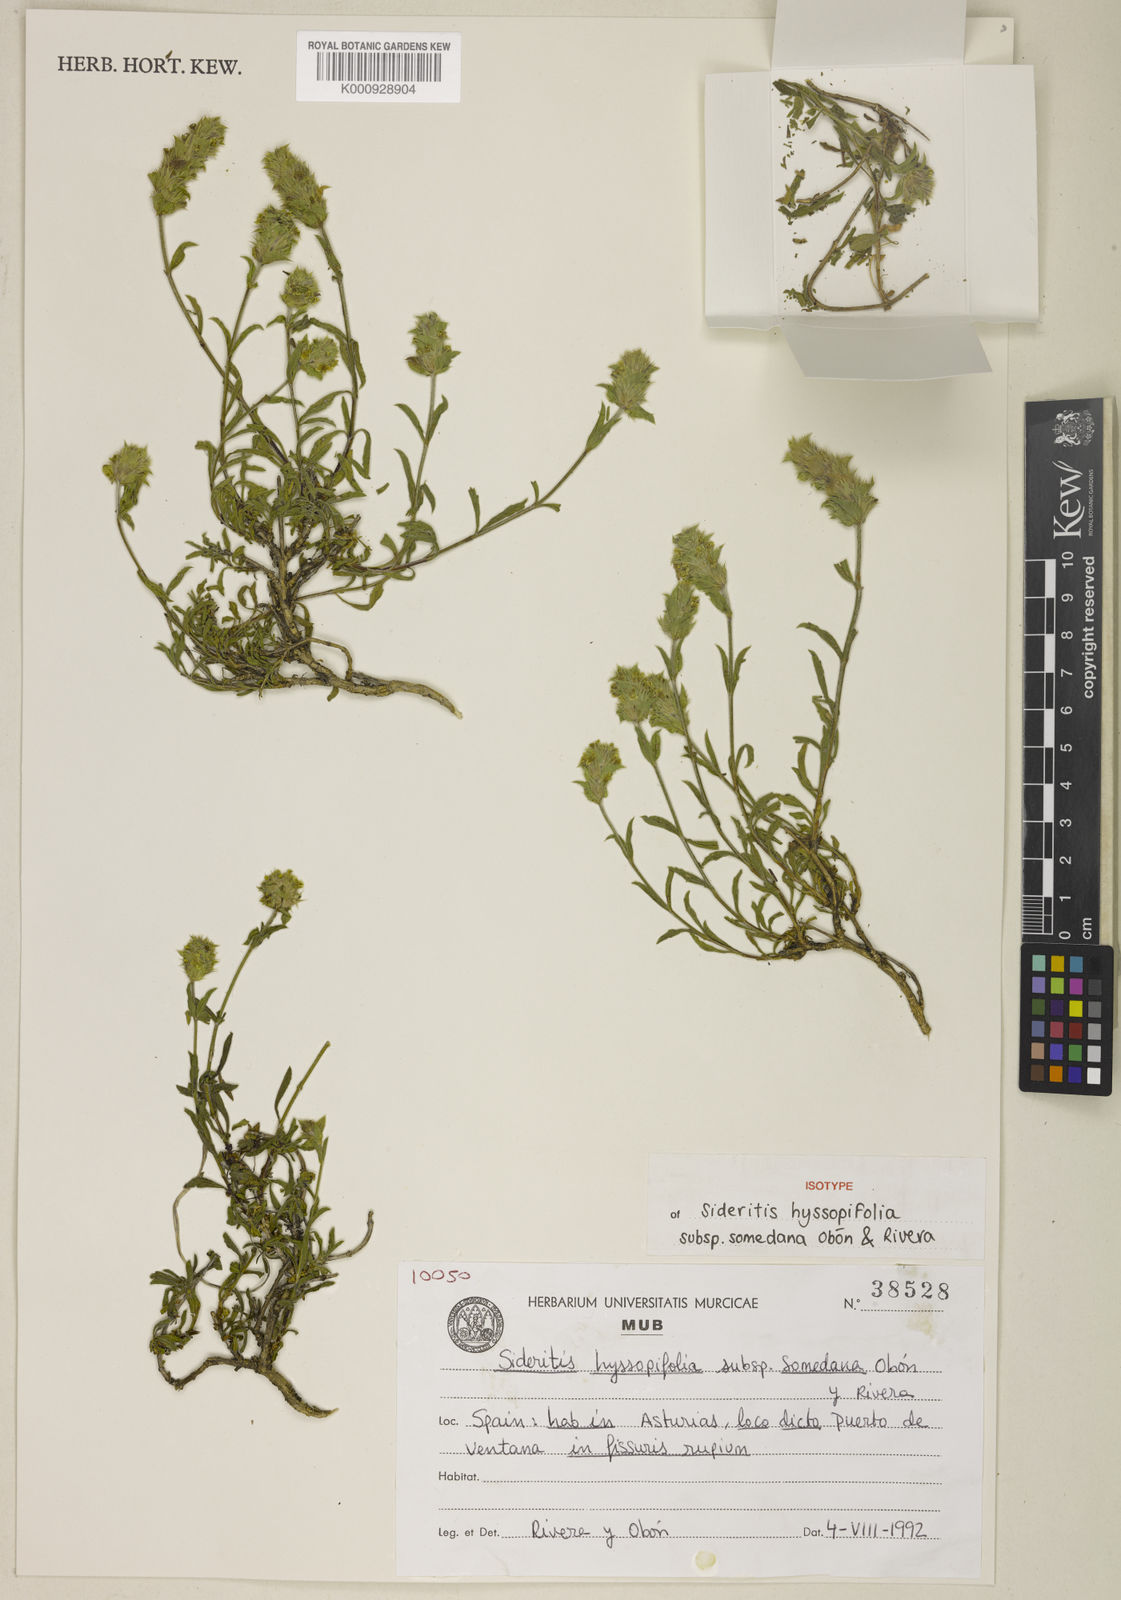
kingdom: Plantae
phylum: Tracheophyta
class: Magnoliopsida
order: Lamiales
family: Lamiaceae
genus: Sideritis
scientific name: Sideritis hyssopifolia
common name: Mountain tea
